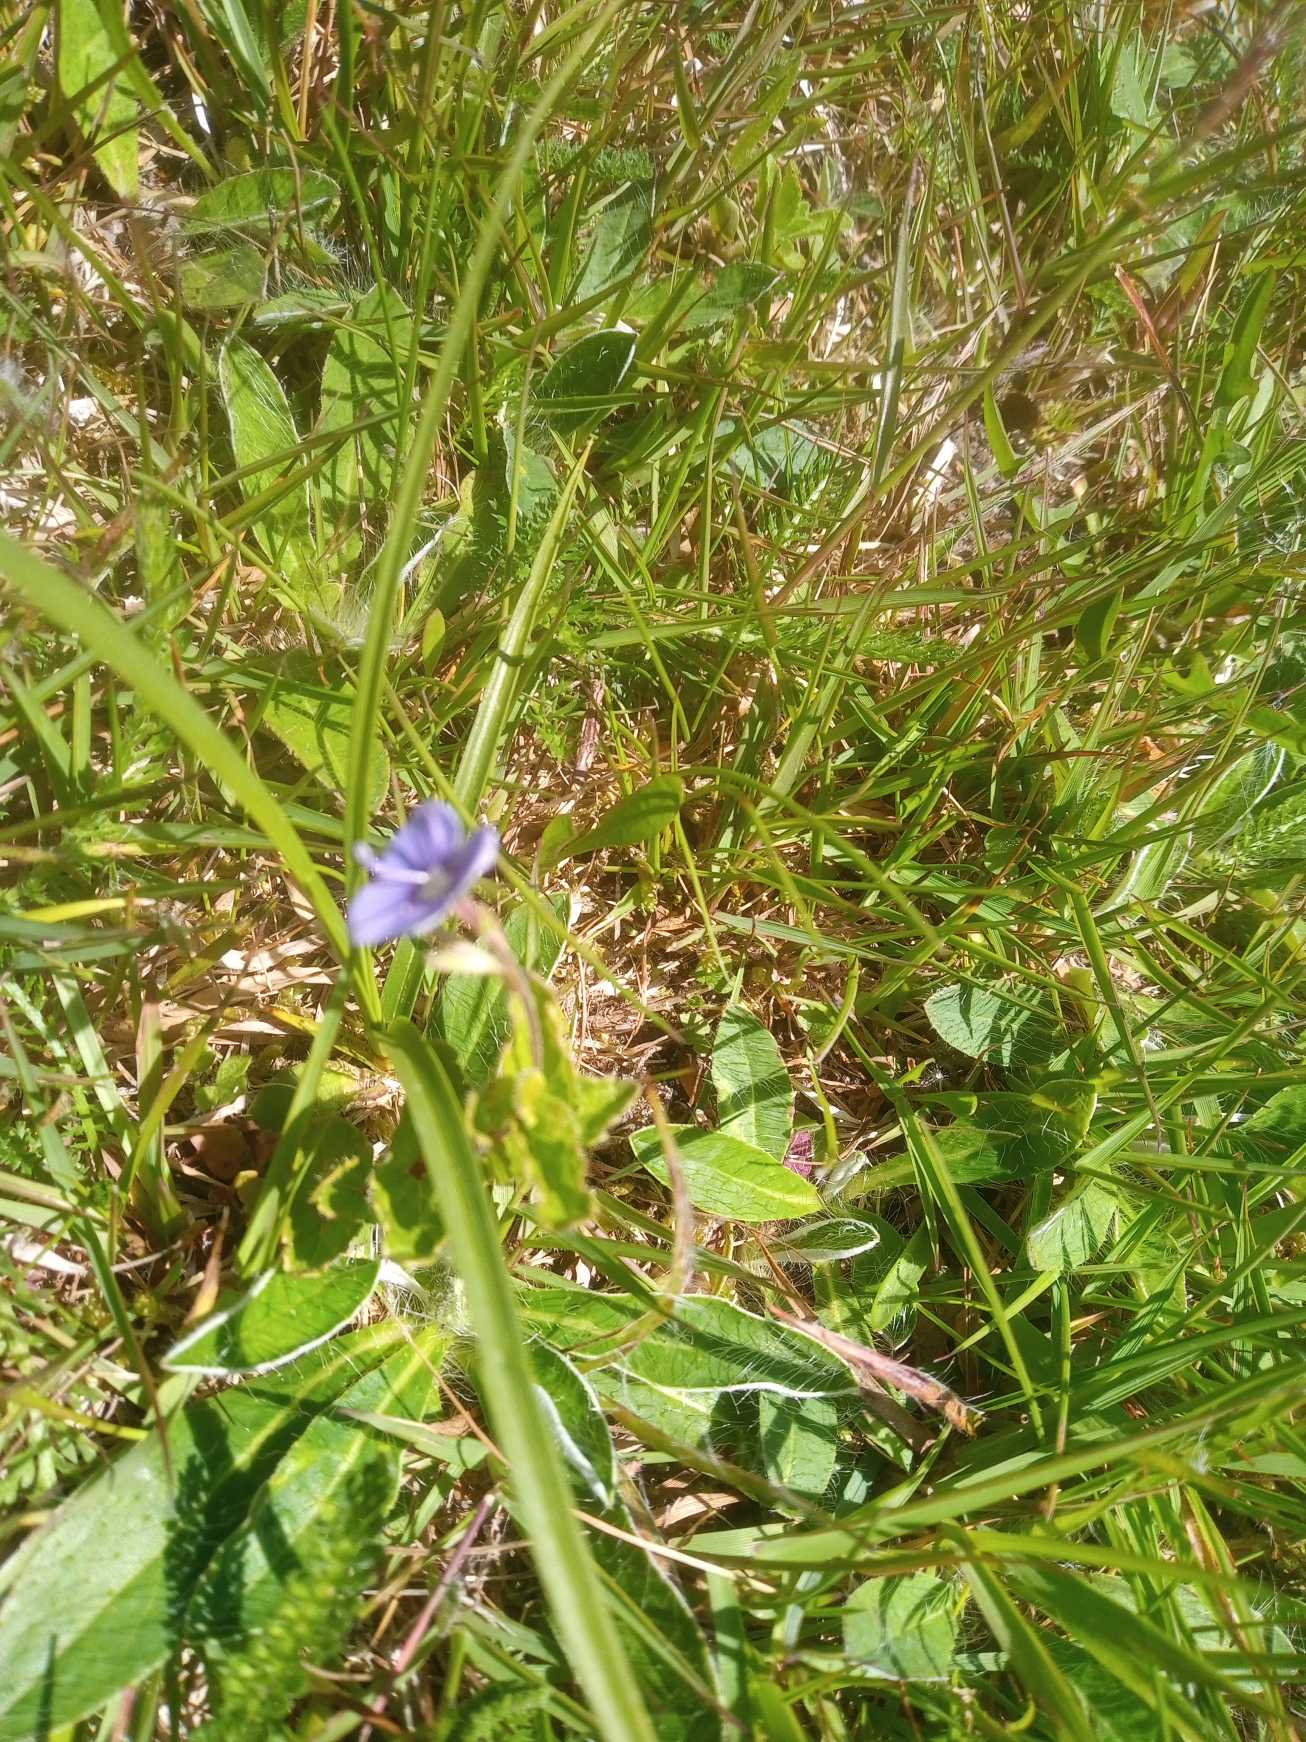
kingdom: Plantae
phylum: Tracheophyta
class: Magnoliopsida
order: Lamiales
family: Plantaginaceae
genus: Veronica
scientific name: Veronica chamaedrys
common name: Tveskægget ærenpris
